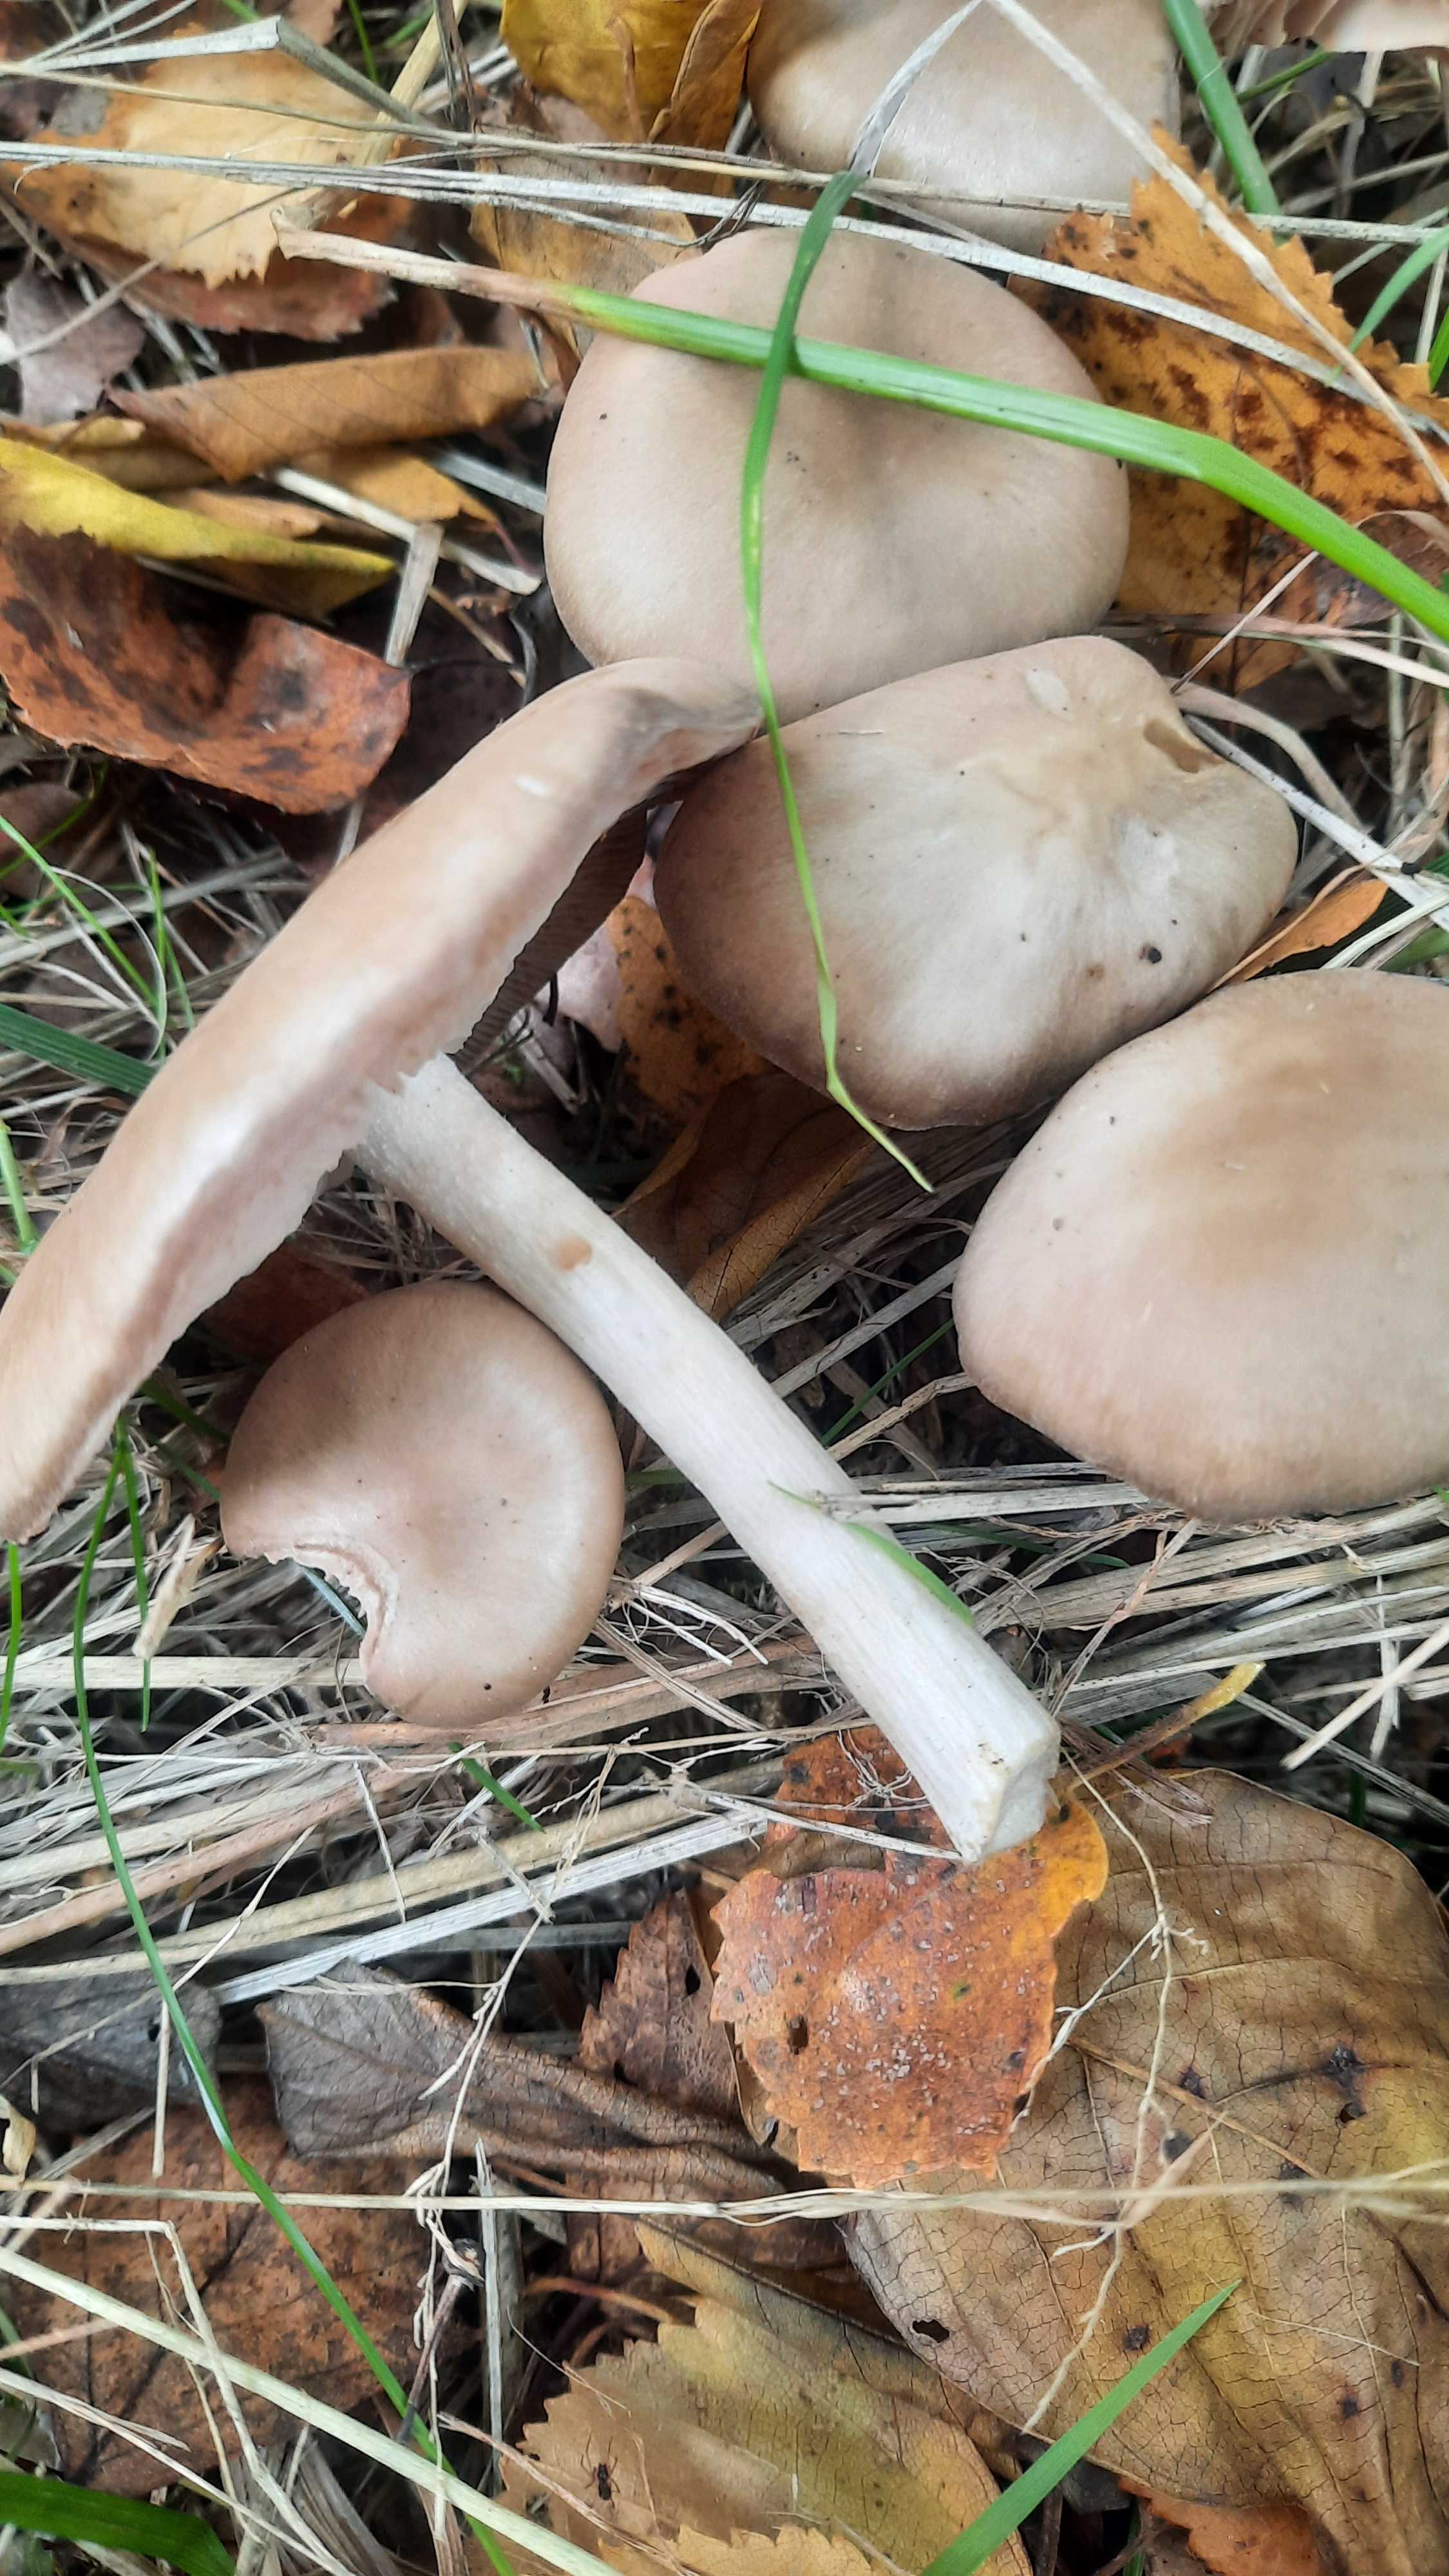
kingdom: Fungi
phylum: Basidiomycota
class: Agaricomycetes
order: Agaricales
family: Entolomataceae
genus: Entoloma
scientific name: Entoloma
